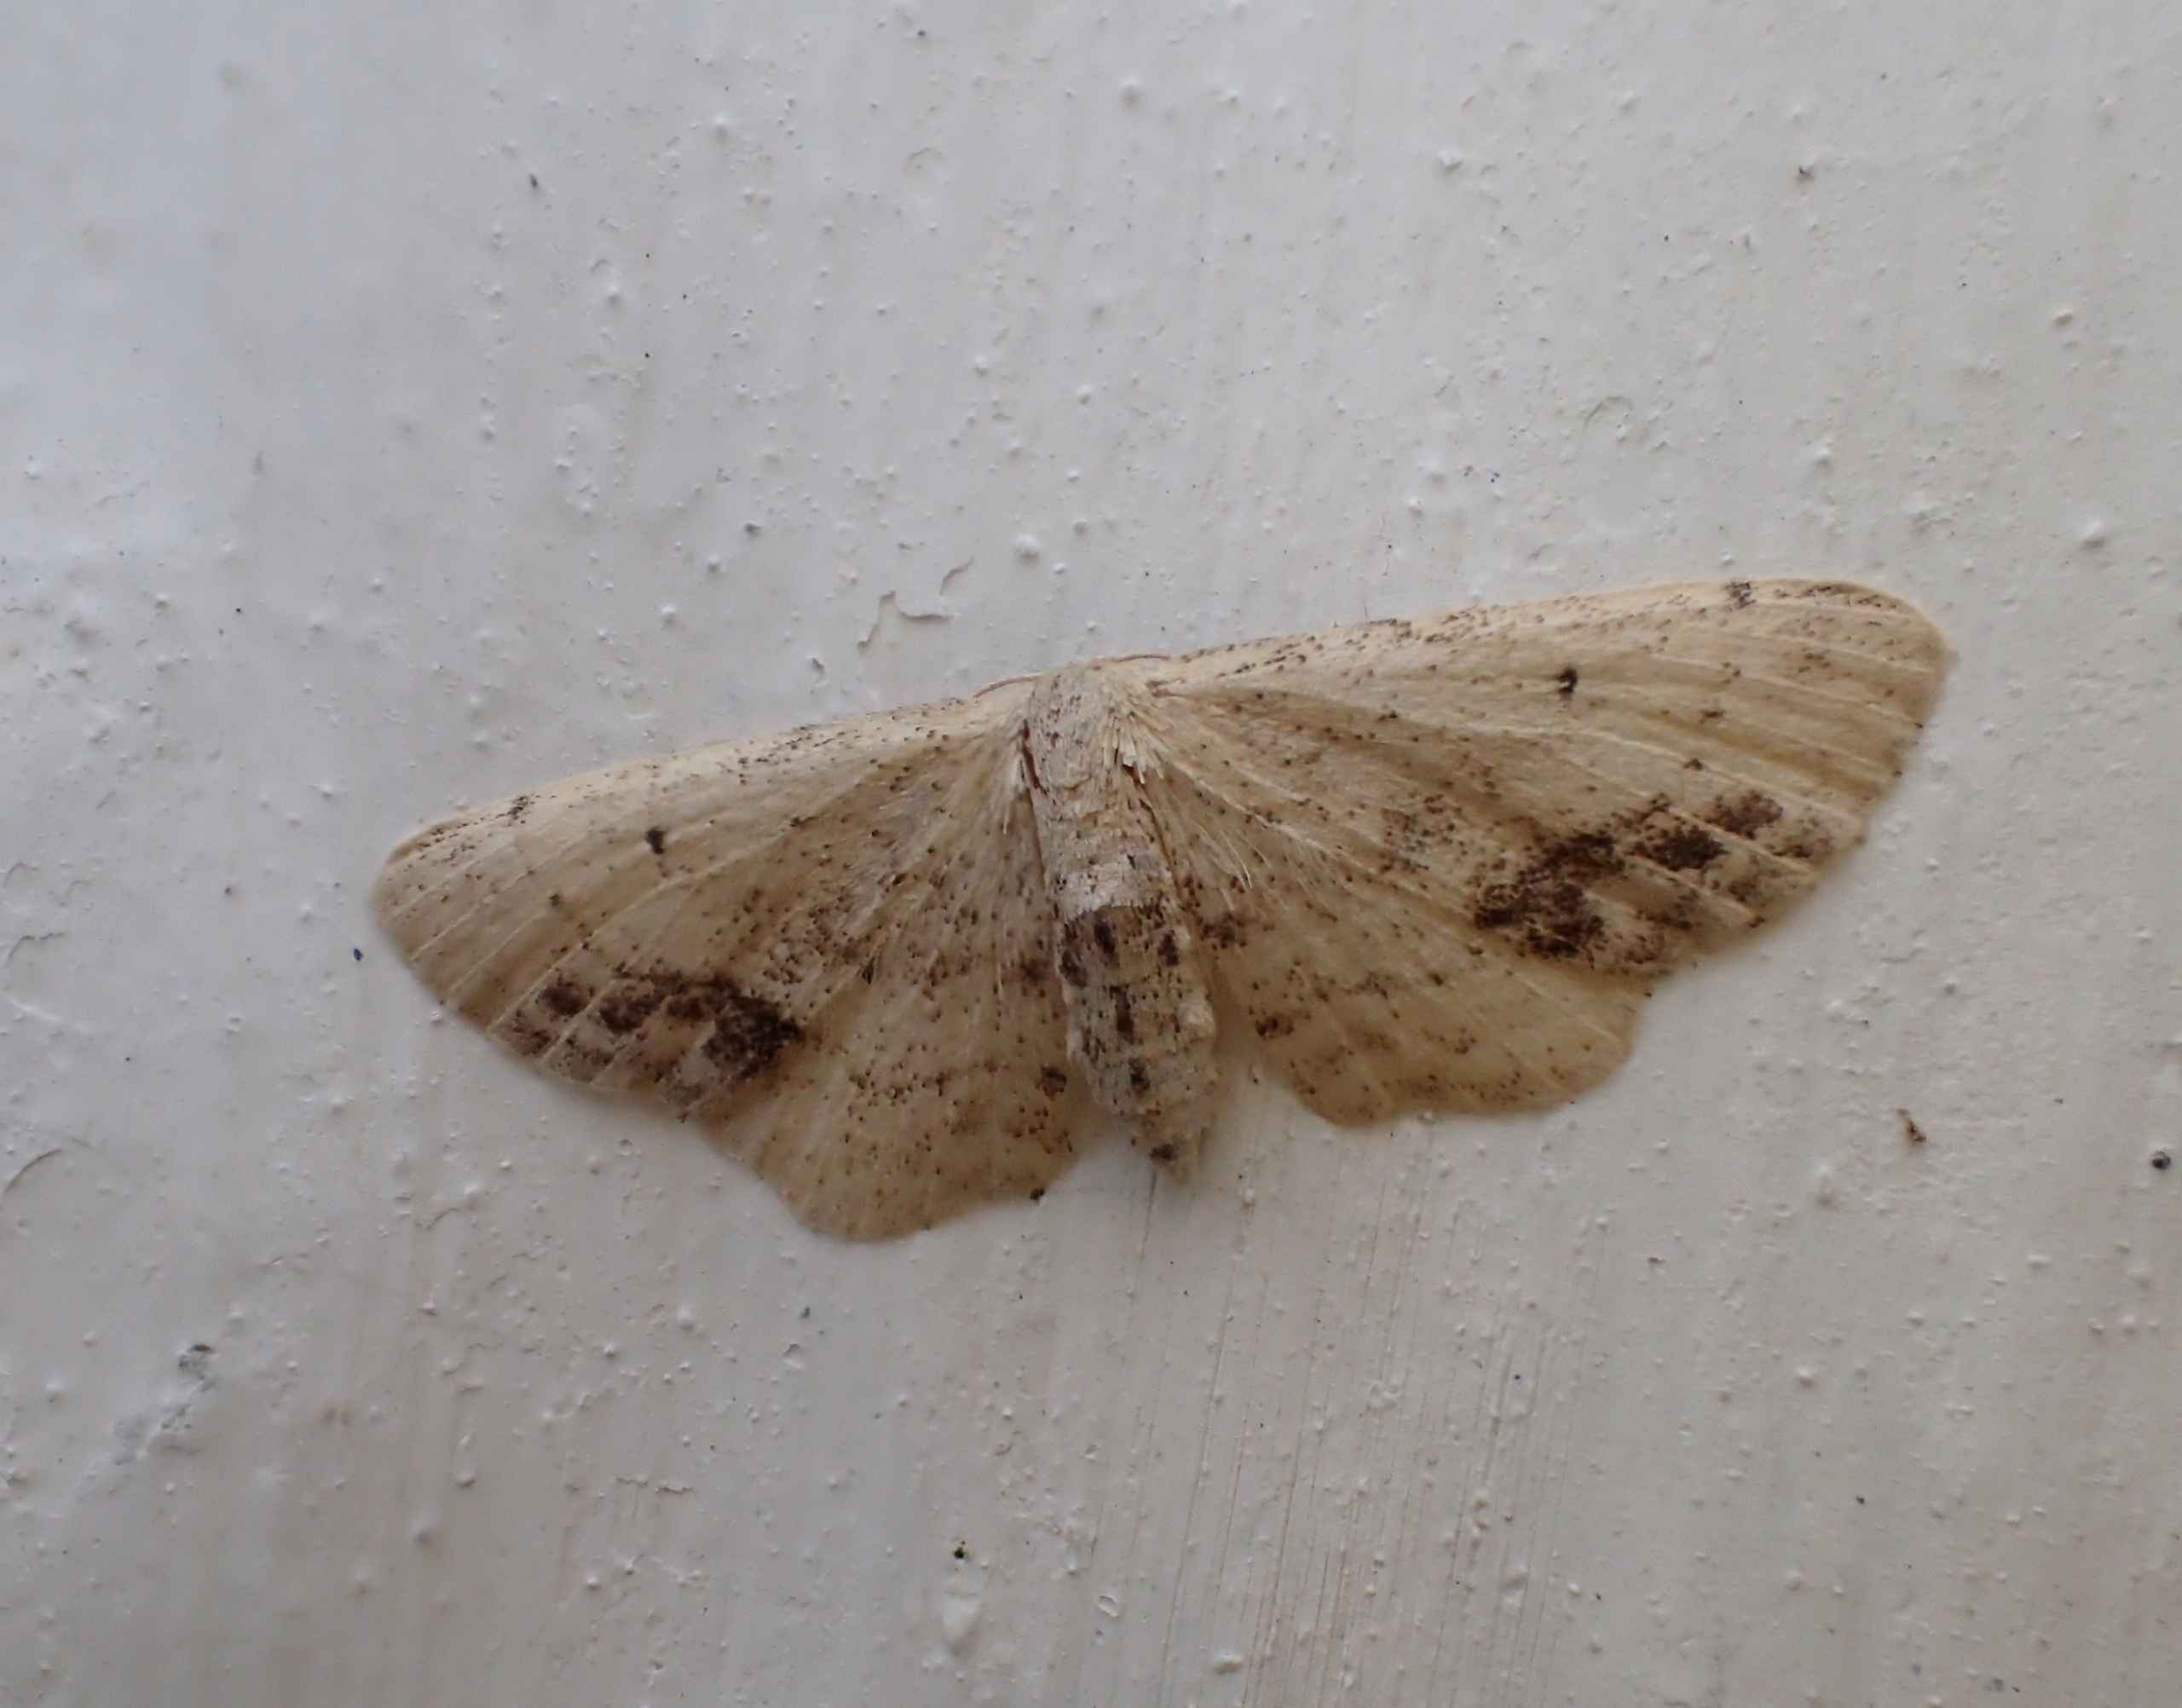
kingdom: Animalia
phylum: Arthropoda
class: Insecta
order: Lepidoptera
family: Geometridae
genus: Idaea
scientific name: Idaea dimidiata
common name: Sortplettet løvmåler
